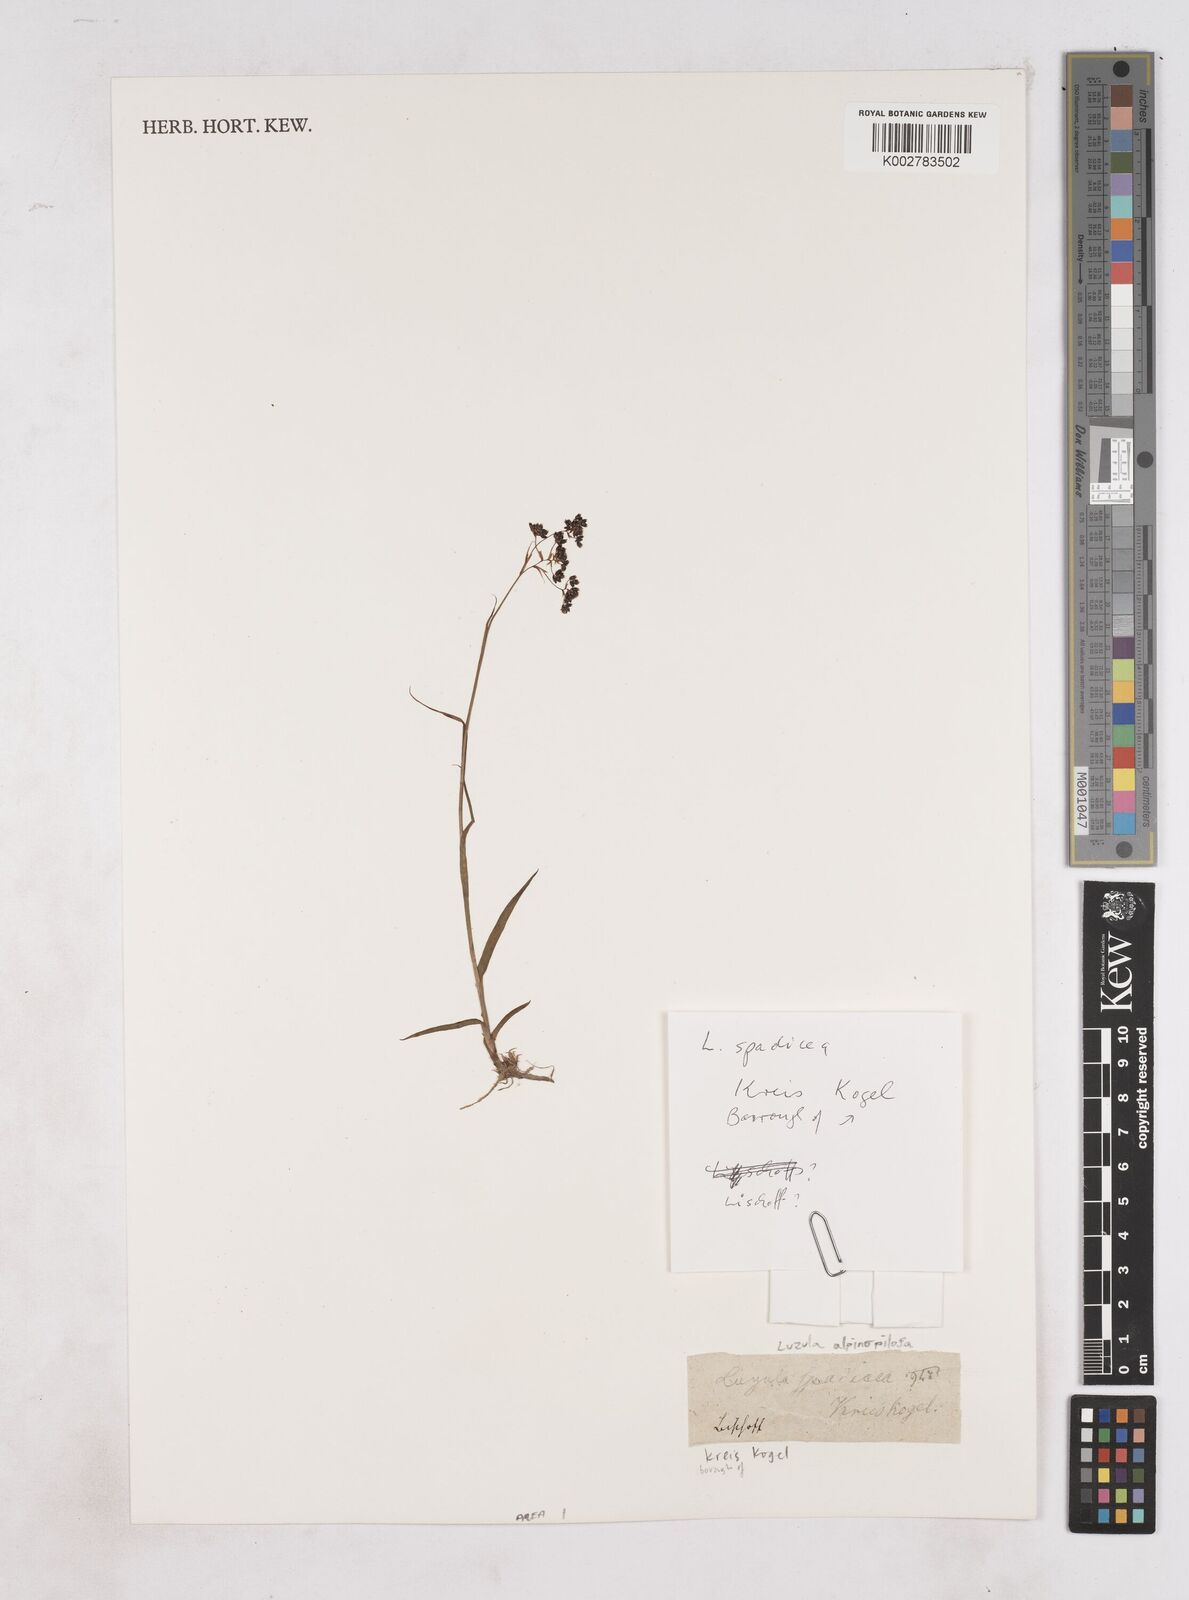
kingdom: Plantae
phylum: Tracheophyta
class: Liliopsida
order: Poales
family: Juncaceae
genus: Luzula
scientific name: Luzula alpinopilosa
